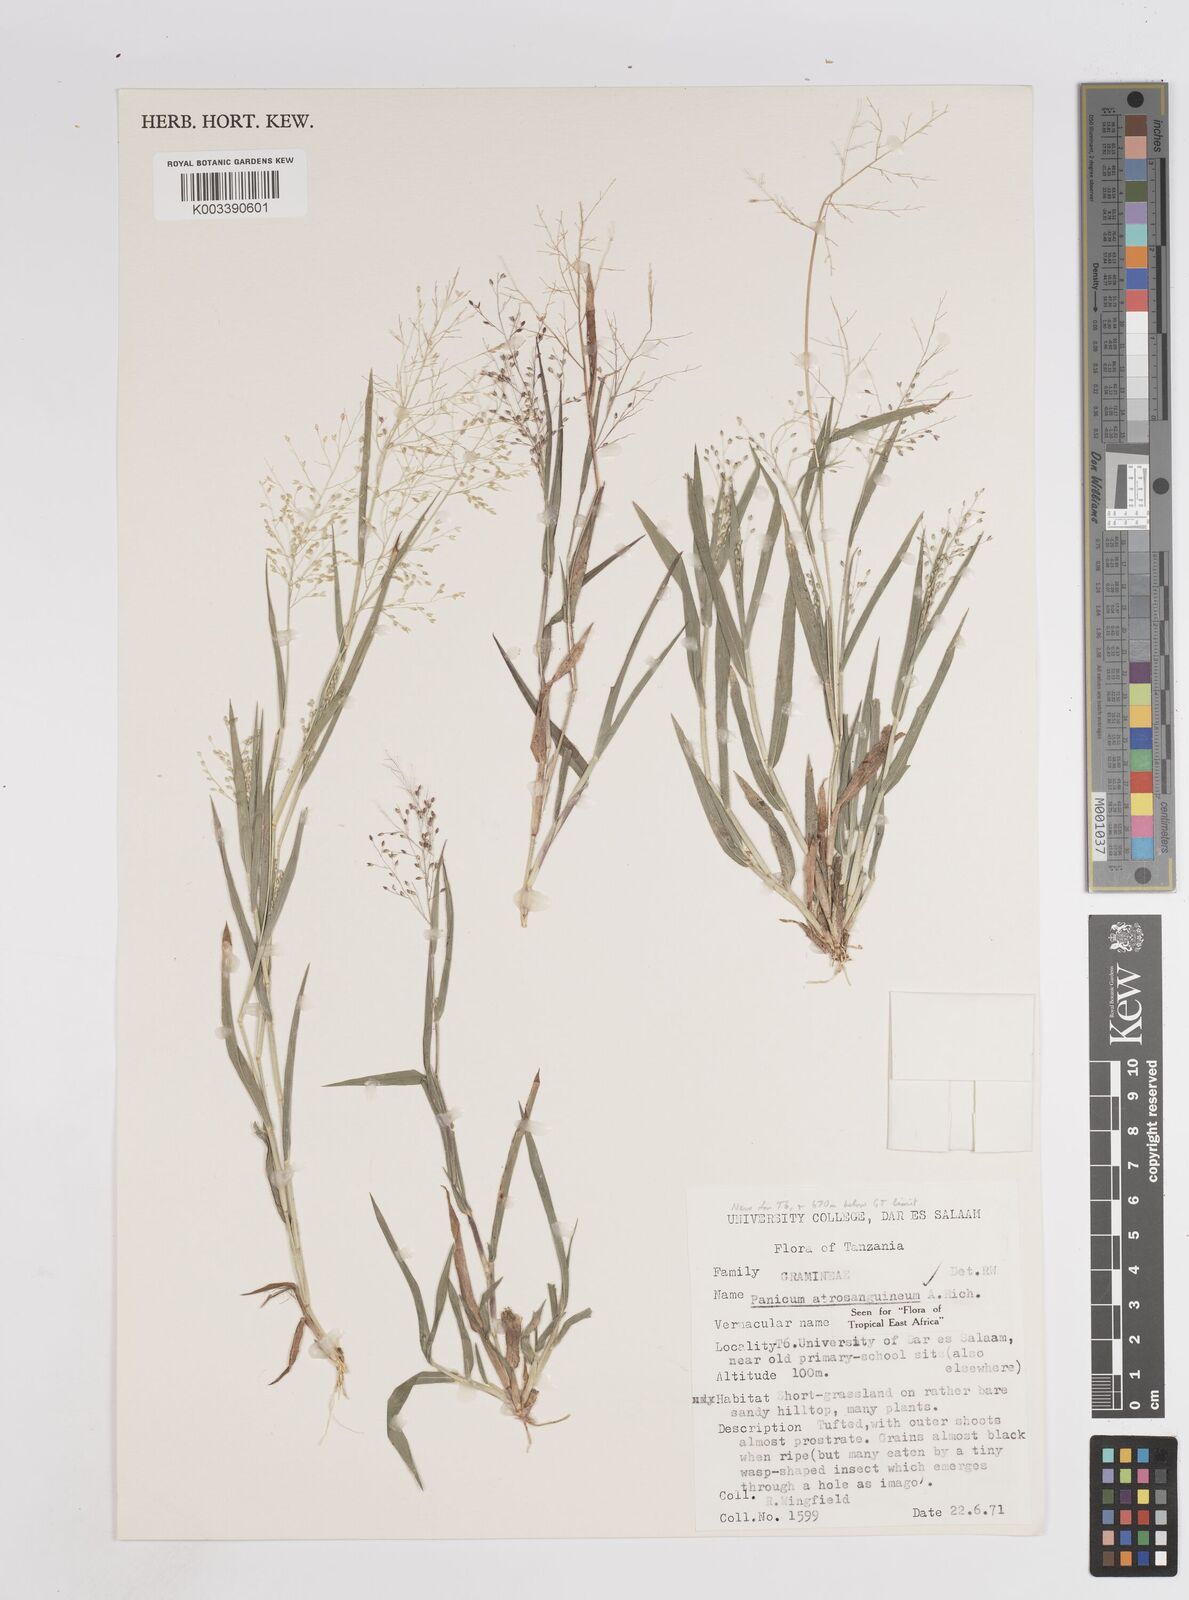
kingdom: Plantae
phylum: Tracheophyta
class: Liliopsida
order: Poales
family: Poaceae
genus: Panicum
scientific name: Panicum atrosanguineum
